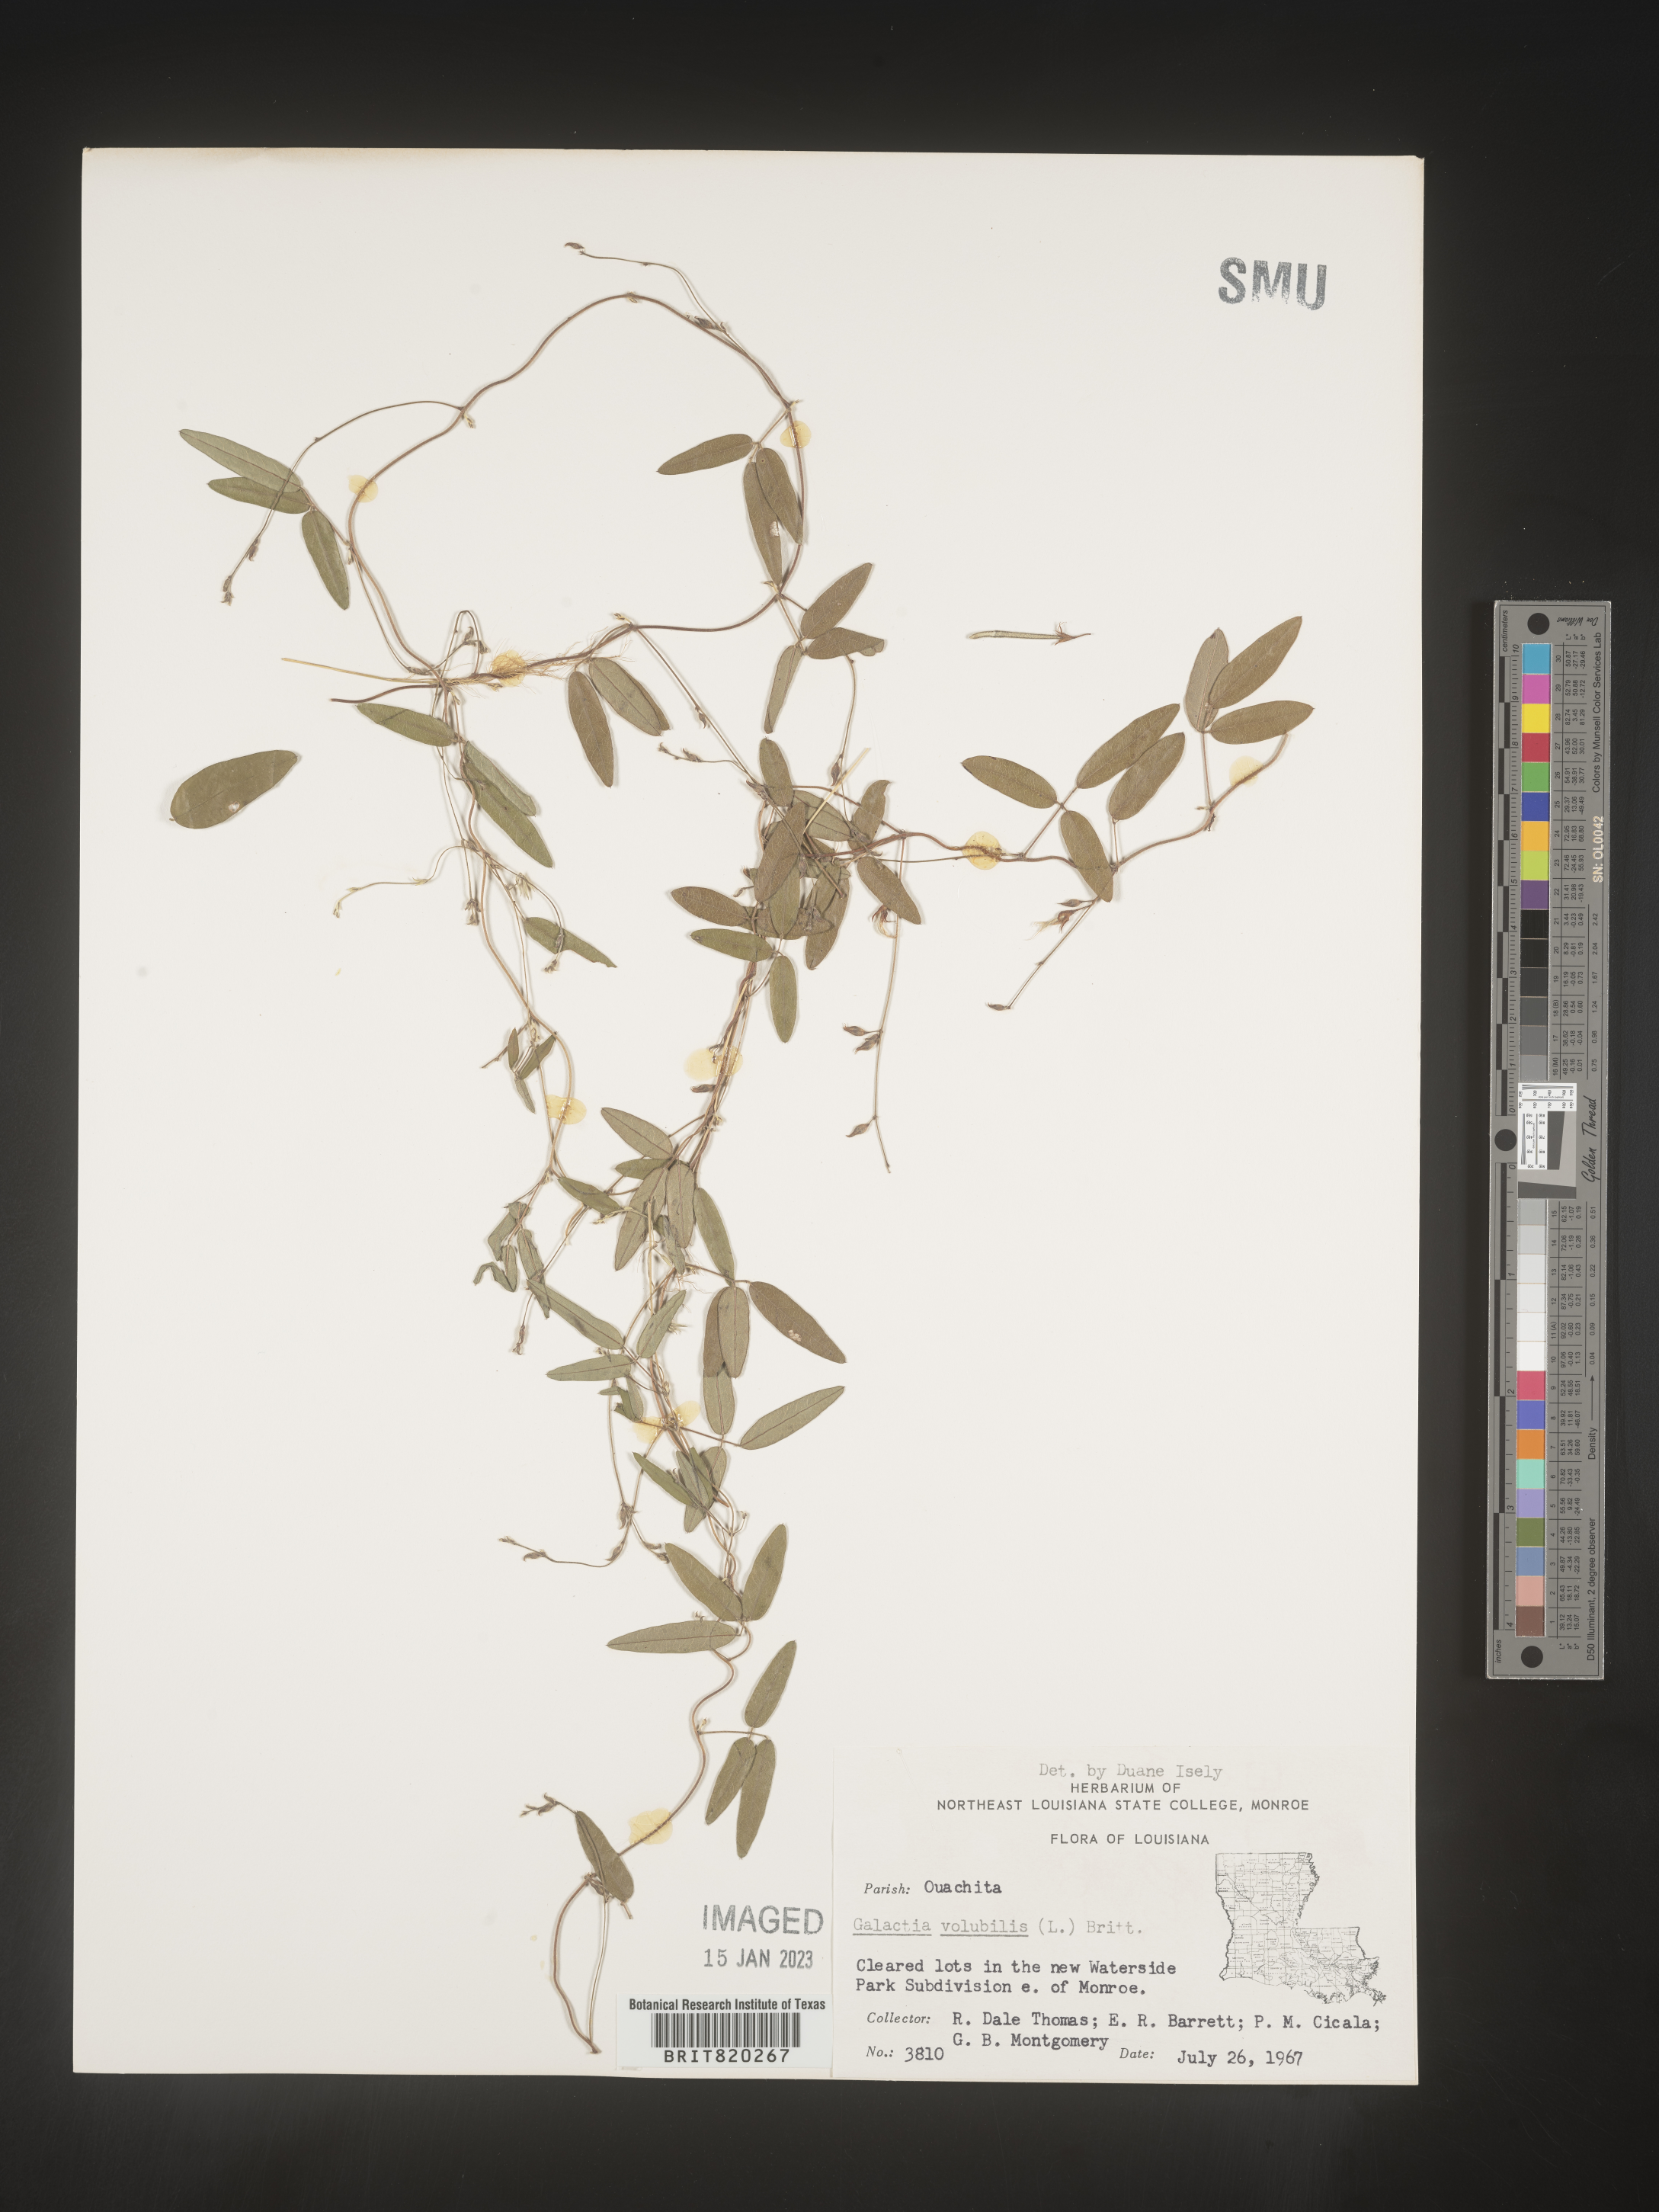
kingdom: Plantae
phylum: Tracheophyta
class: Magnoliopsida
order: Fabales
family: Fabaceae
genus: Galactia
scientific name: Galactia volubilis
